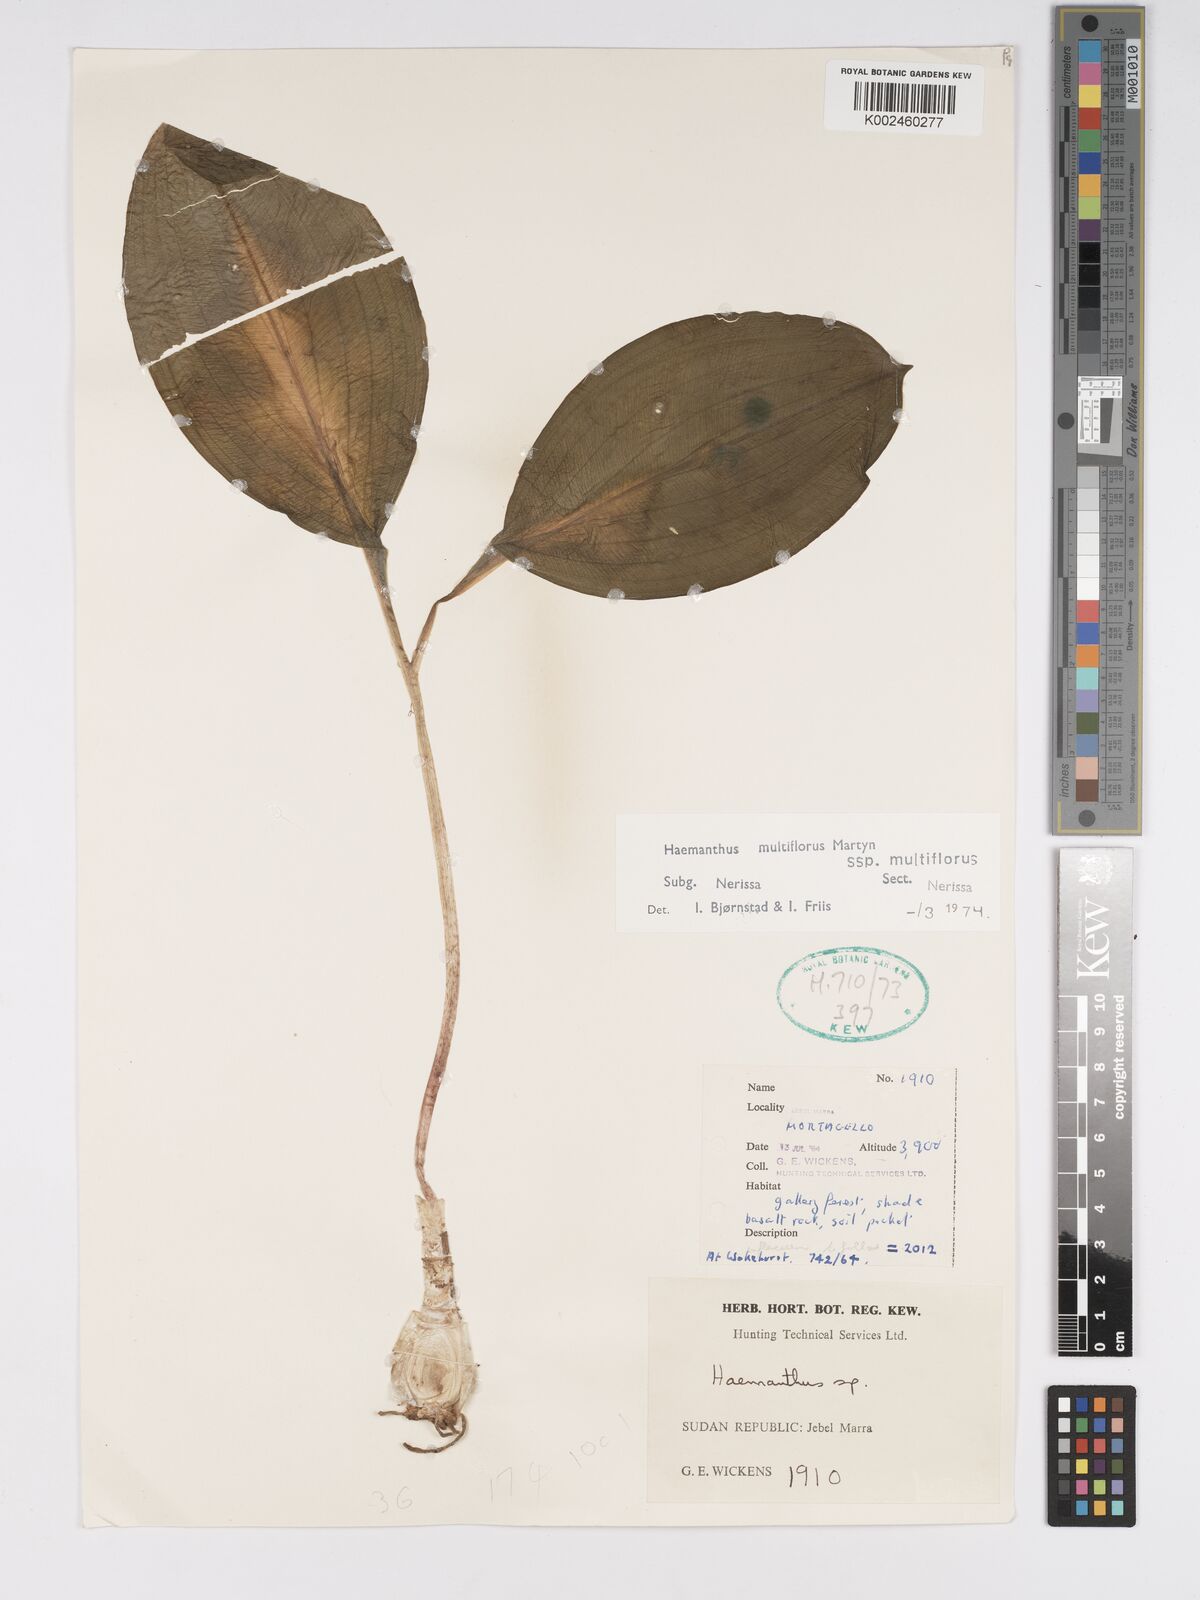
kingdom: Plantae
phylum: Tracheophyta
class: Liliopsida
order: Asparagales
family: Amaryllidaceae
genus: Scadoxus
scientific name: Scadoxus multiflorus
